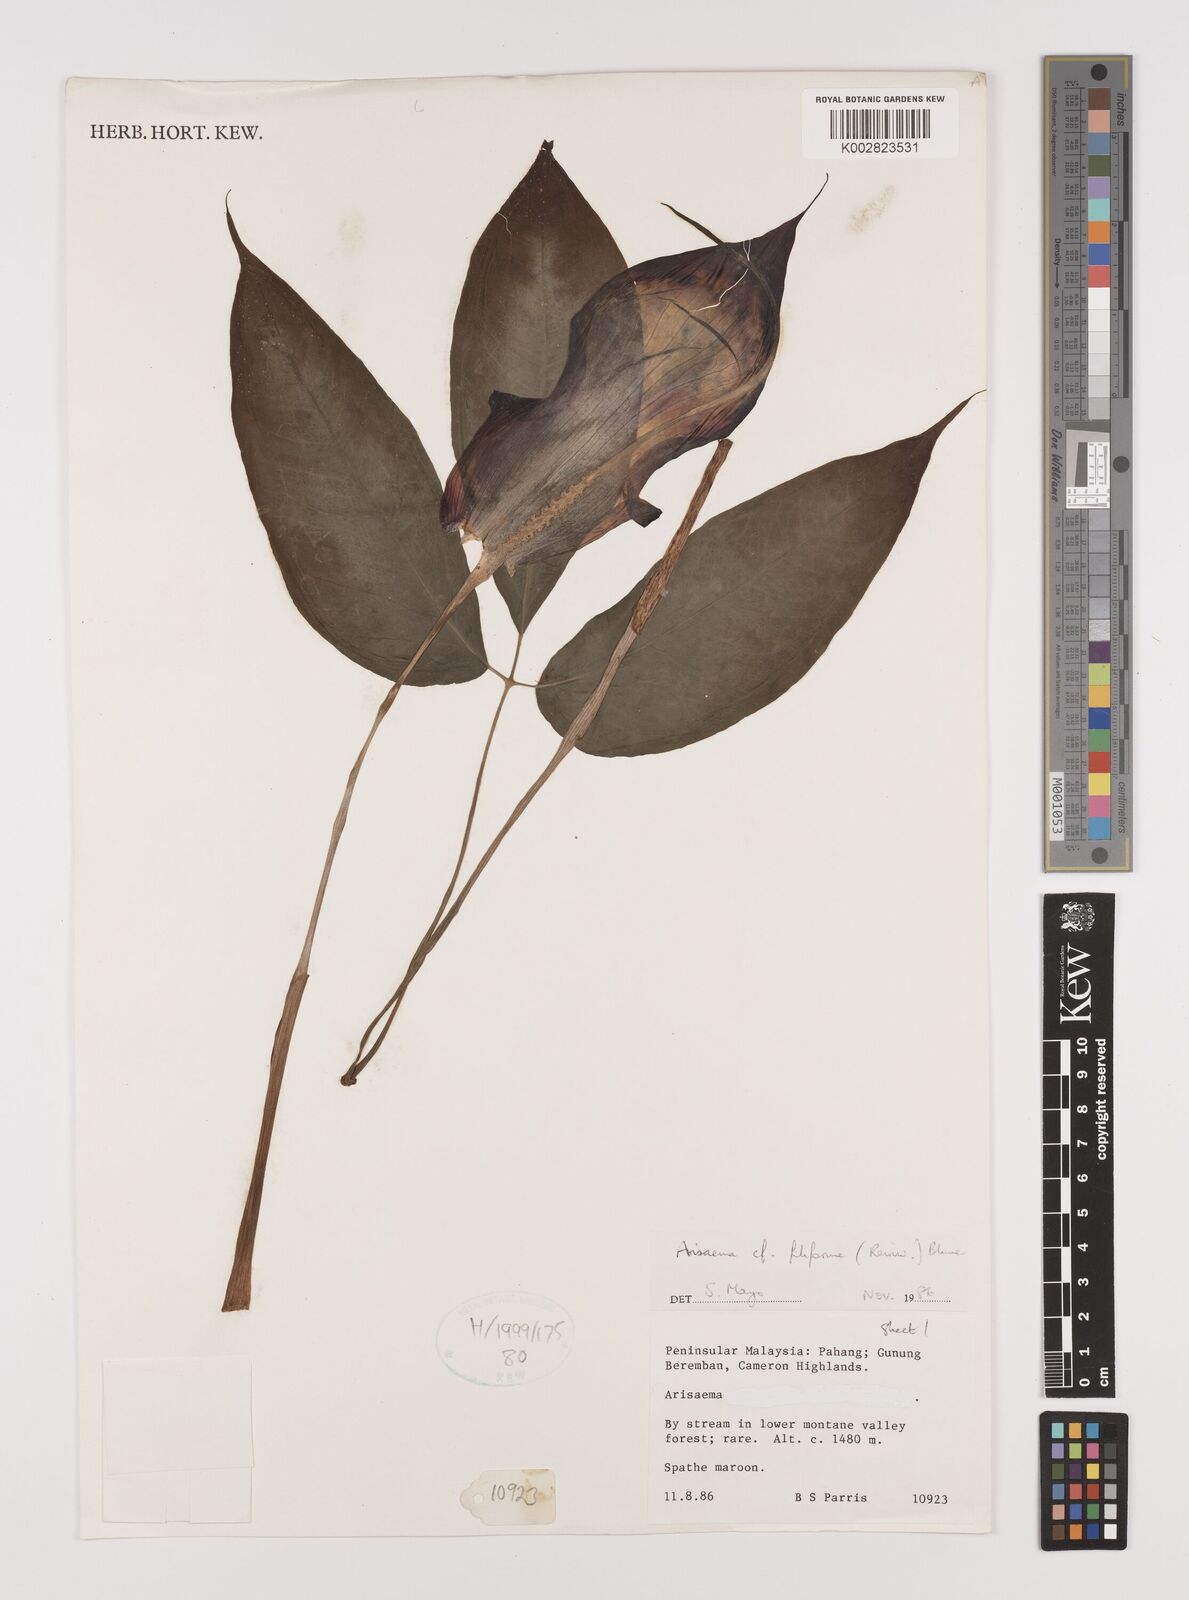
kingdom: Plantae
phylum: Tracheophyta
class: Liliopsida
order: Alismatales
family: Araceae
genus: Arisaema
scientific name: Arisaema filiforme
